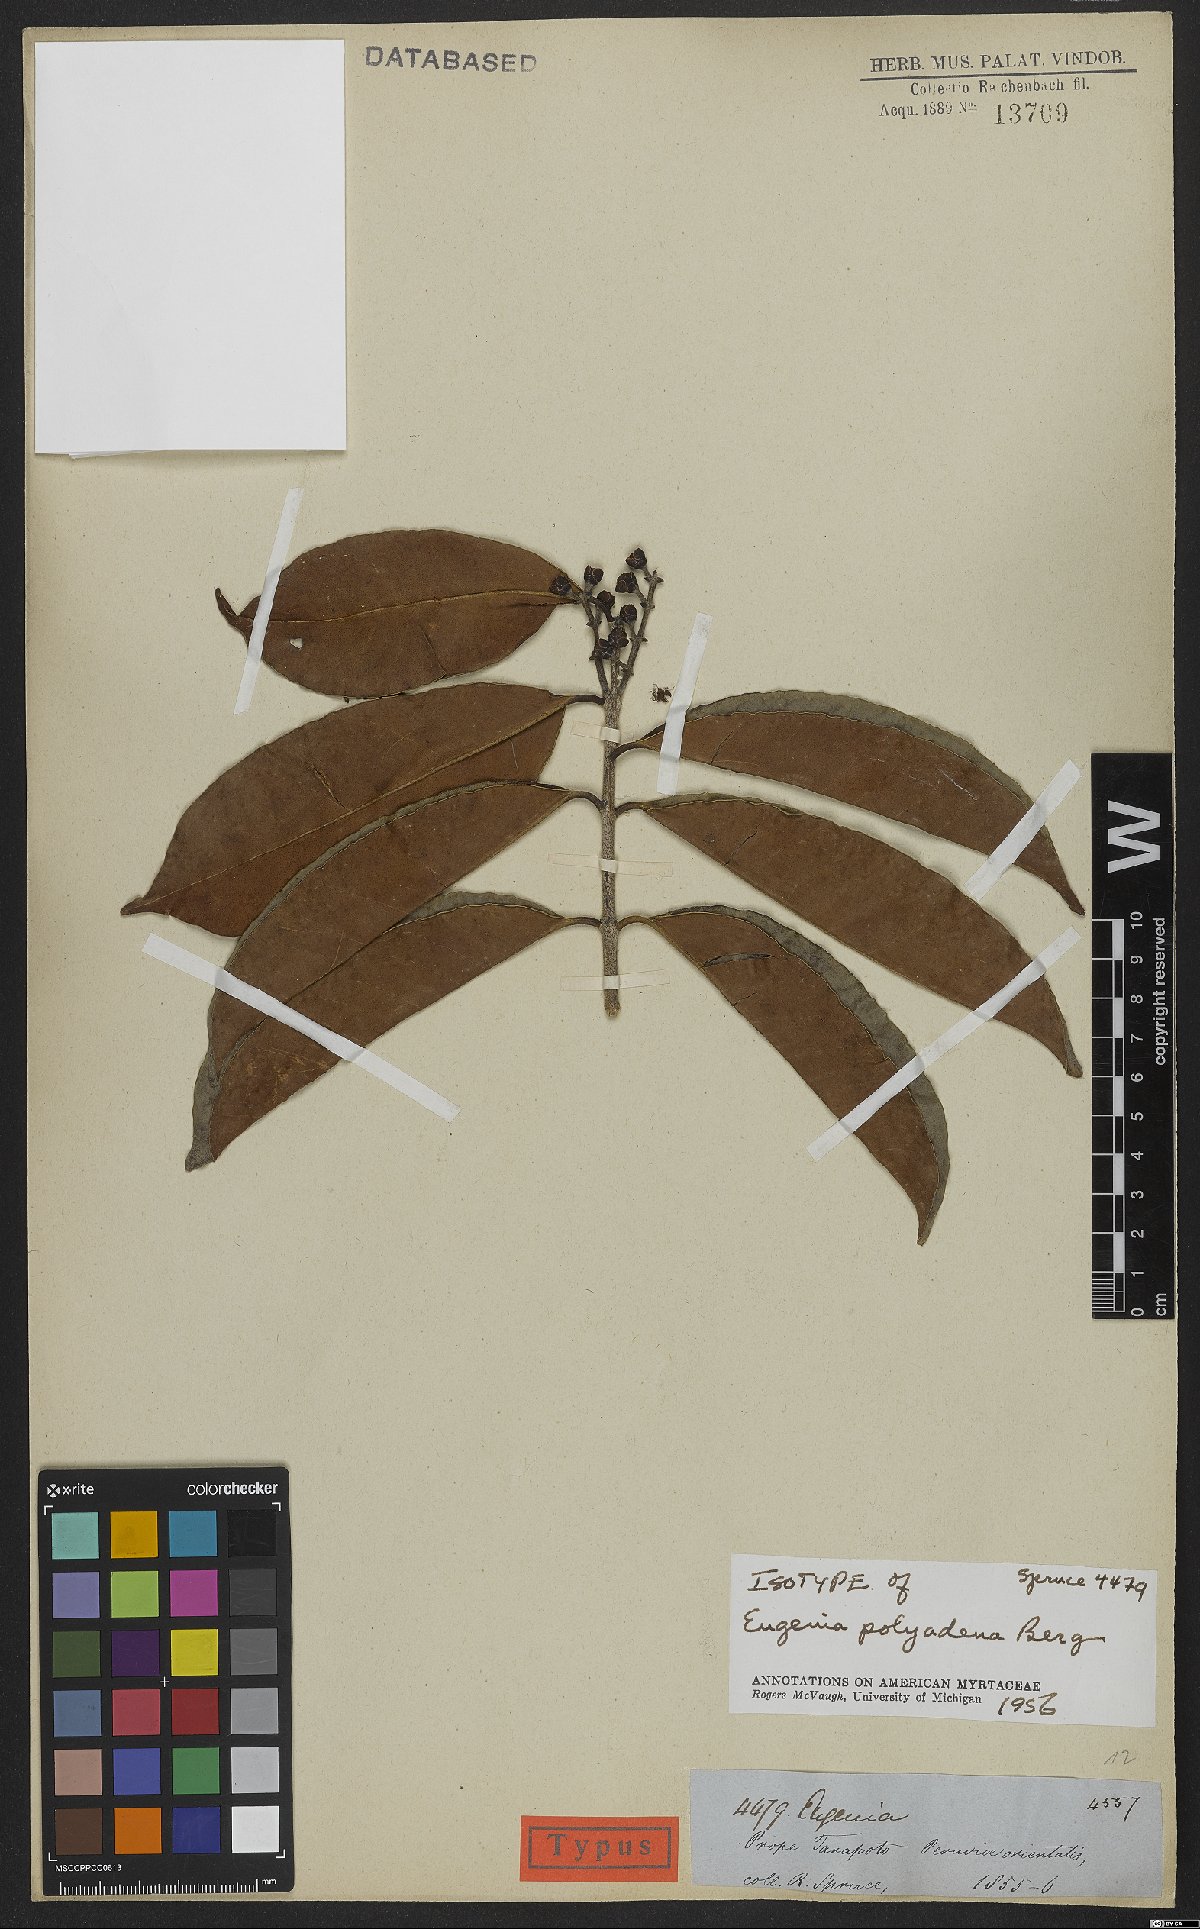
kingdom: Plantae
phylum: Tracheophyta
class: Magnoliopsida
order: Myrtales
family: Myrtaceae
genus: Eugenia
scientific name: Eugenia polyadena
